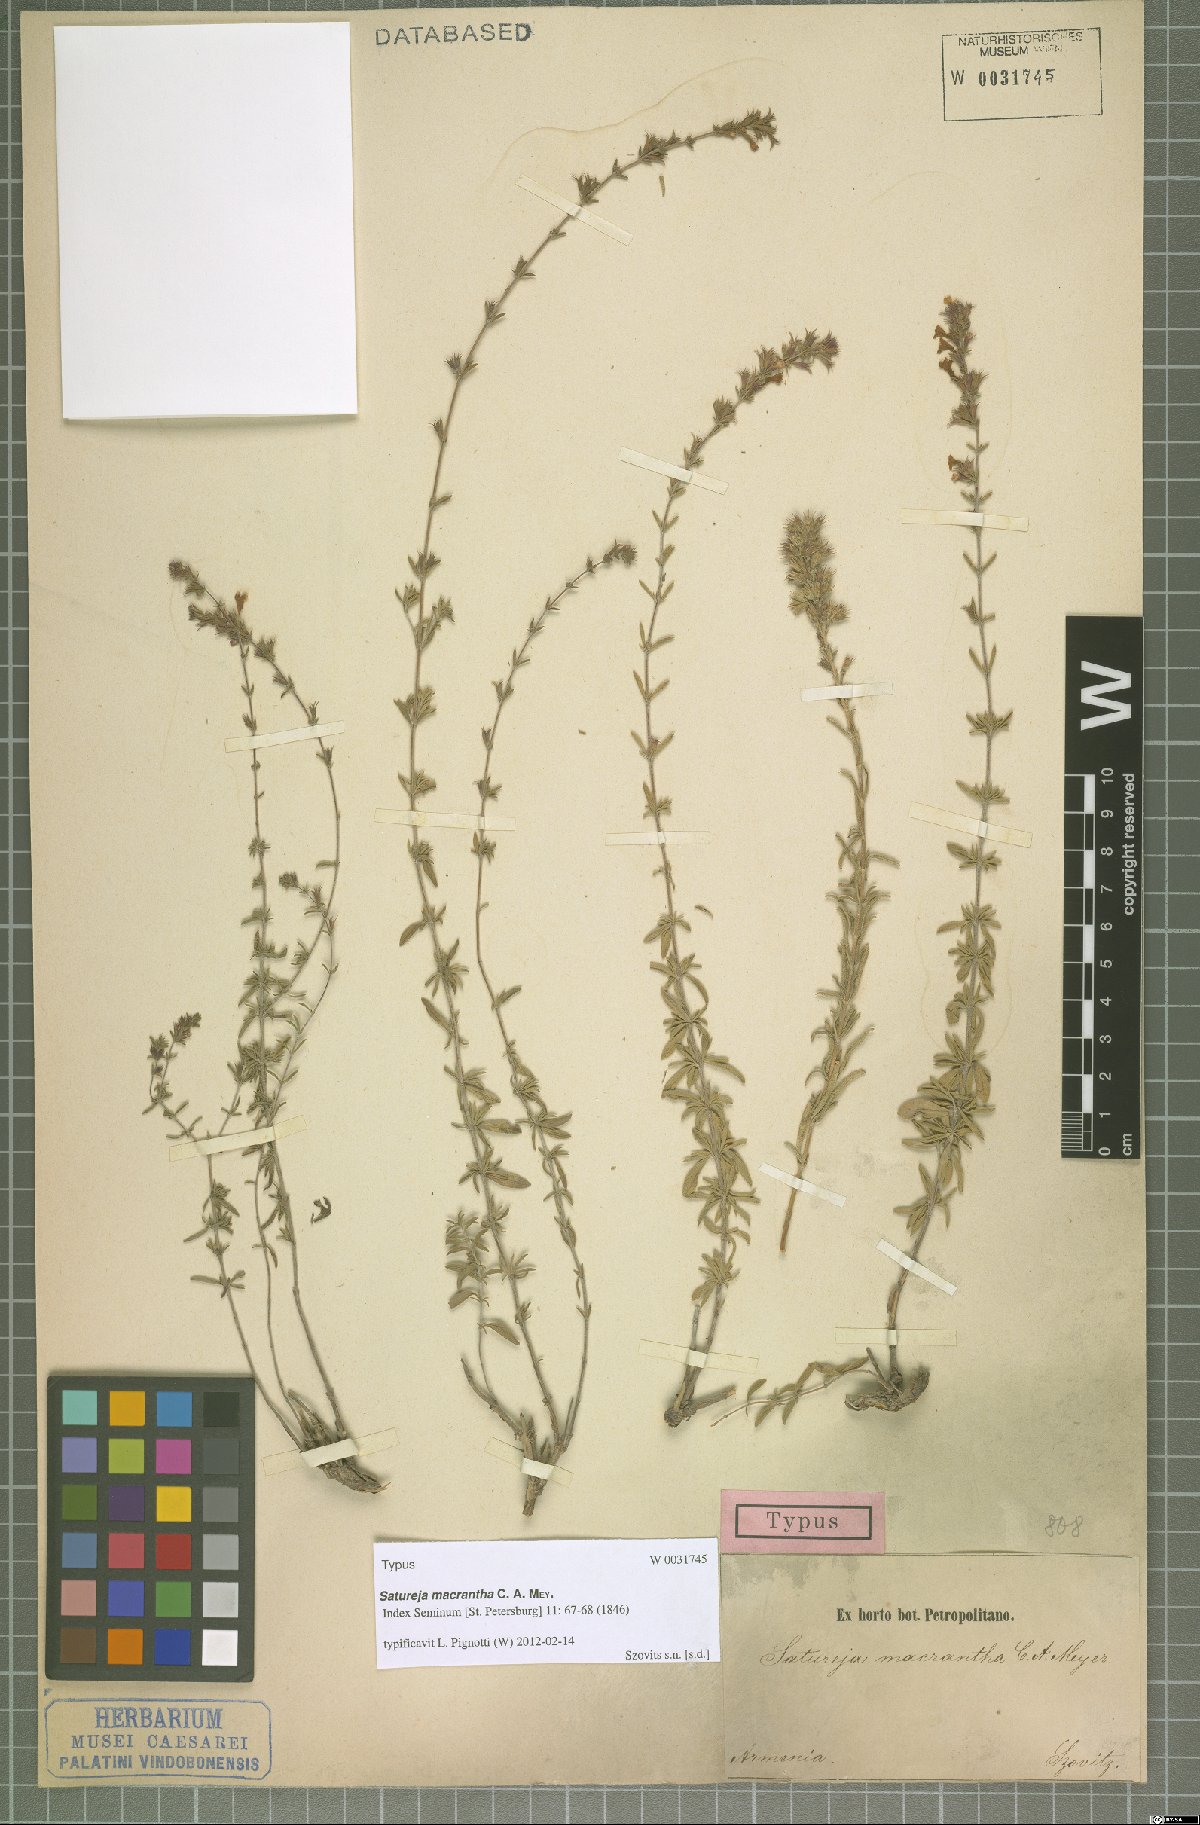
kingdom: Plantae
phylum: Tracheophyta
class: Magnoliopsida
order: Lamiales
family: Lamiaceae
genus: Satureja
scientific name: Satureja macrantha
